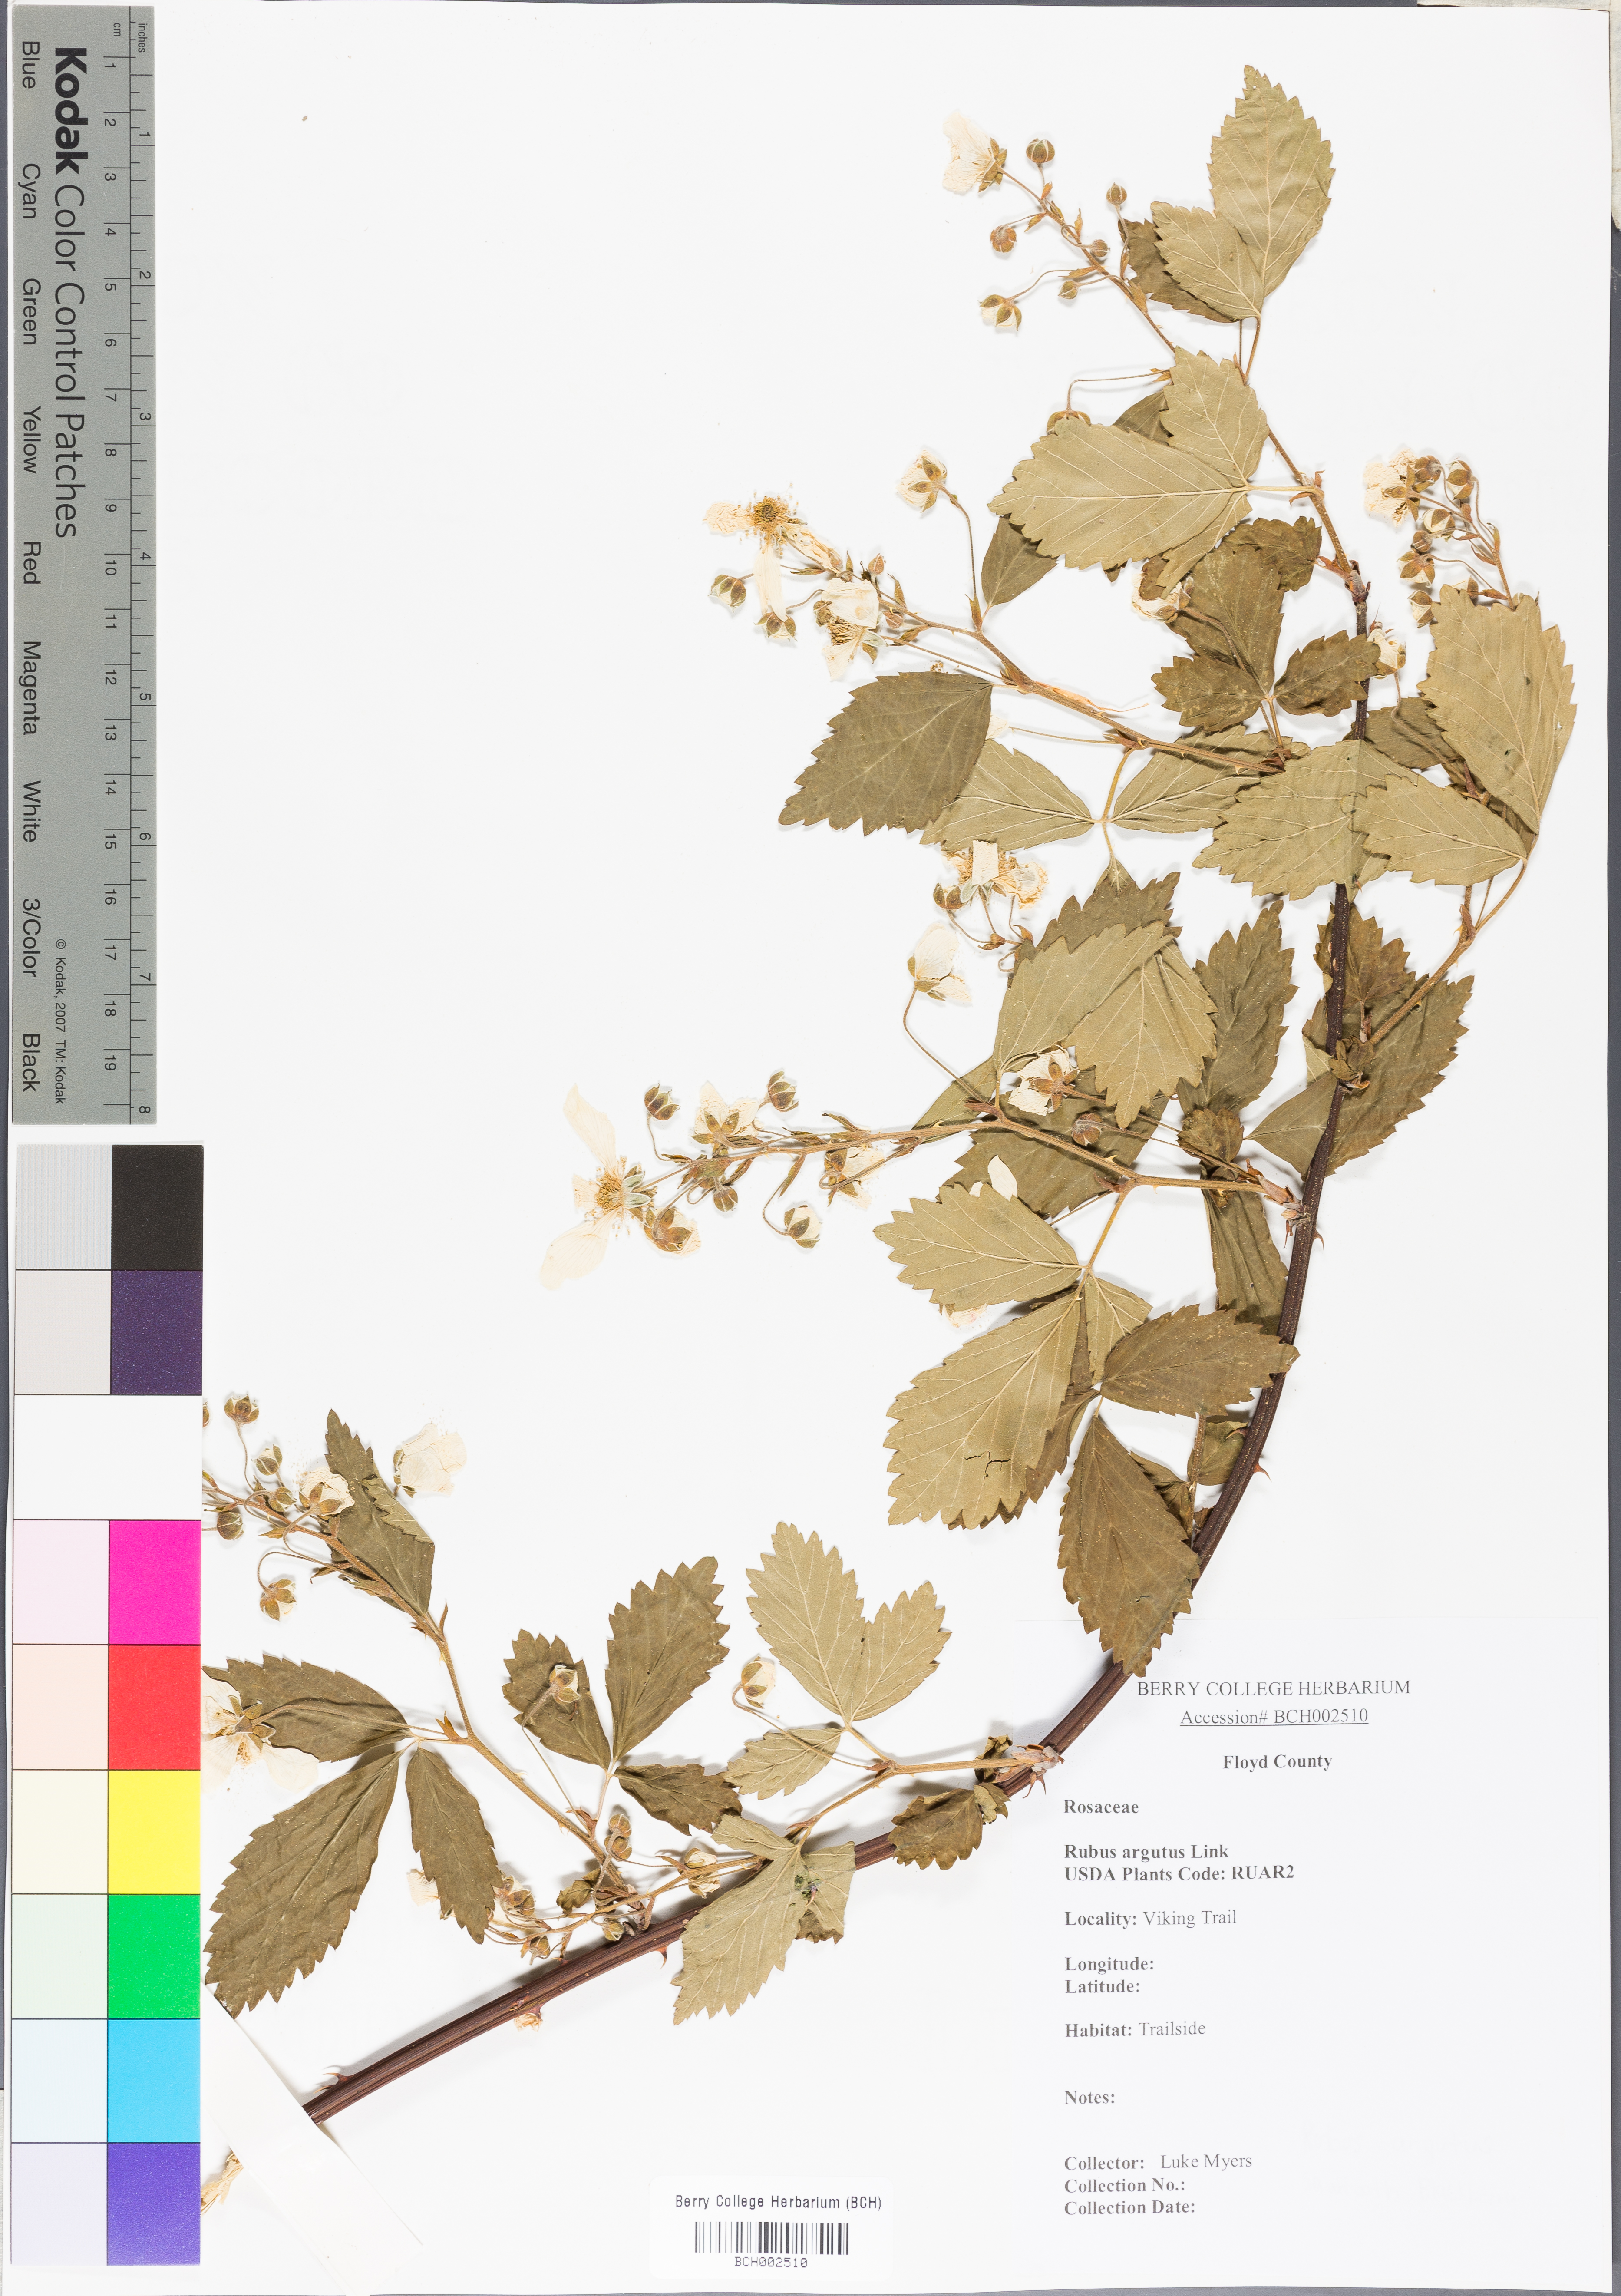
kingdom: Plantae
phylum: Tracheophyta
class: Magnoliopsida
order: Rosales
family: Rosaceae
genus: Rubus
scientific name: Rubus argutus
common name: Sawtooth blackberry
